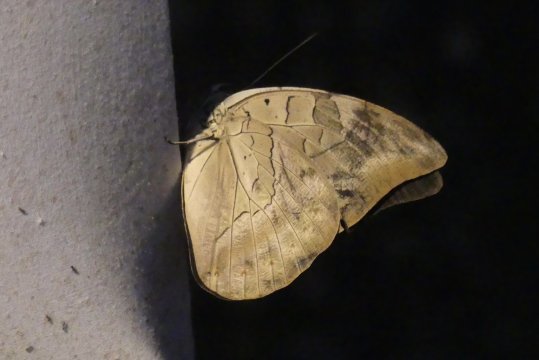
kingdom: Animalia
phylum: Arthropoda
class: Insecta
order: Lepidoptera
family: Nymphalidae
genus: Prepona
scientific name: Prepona demophon
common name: One-spotted Prepona
